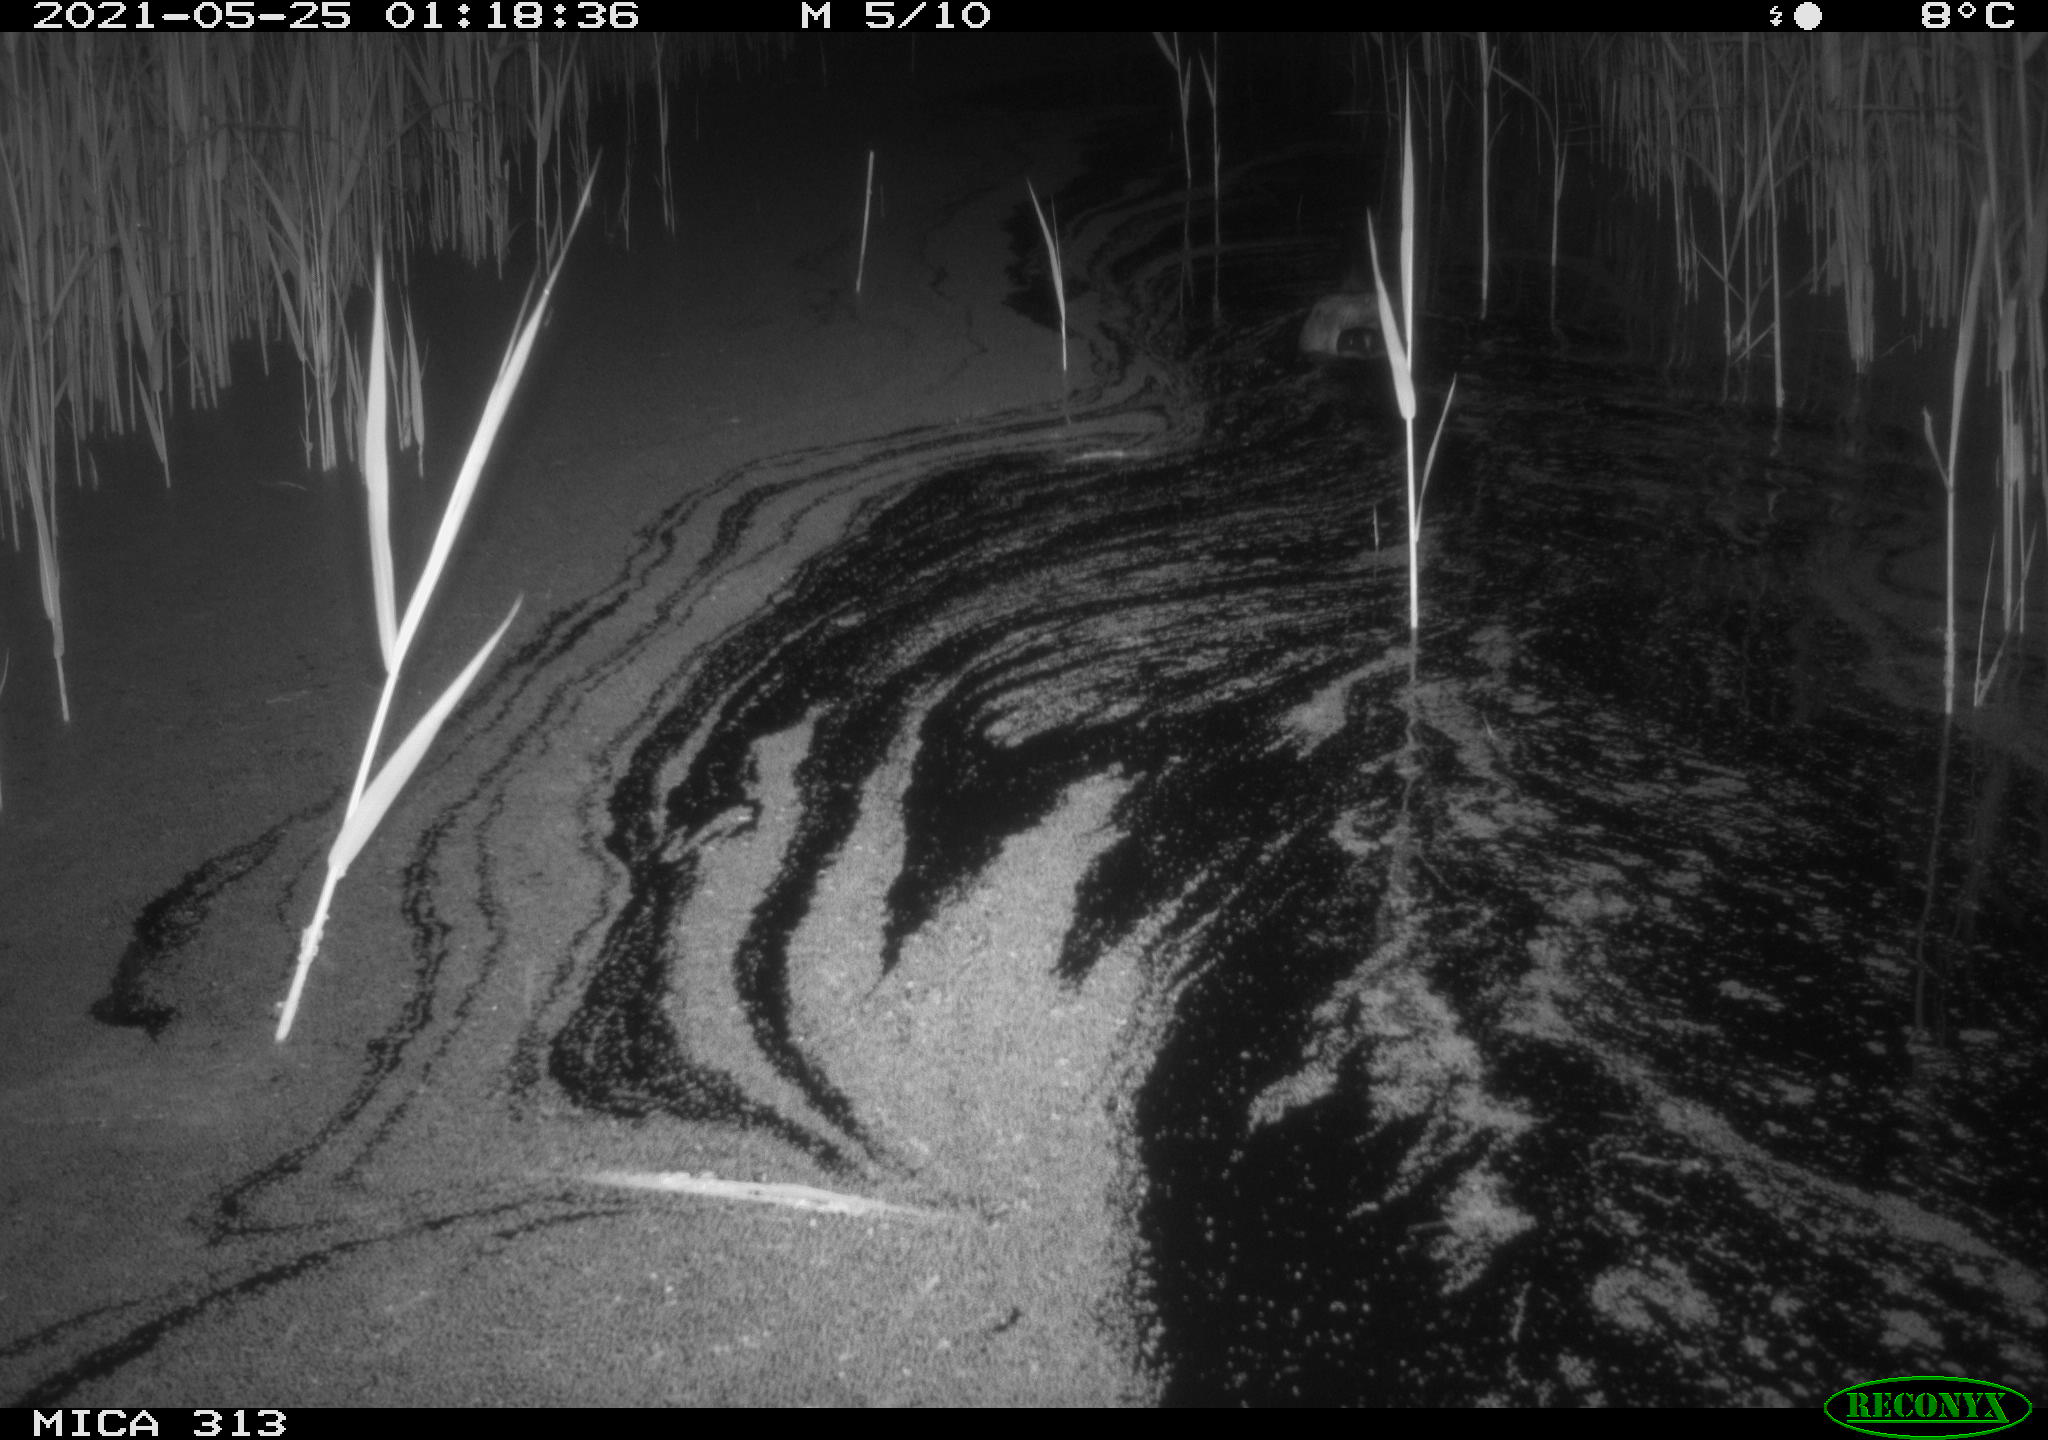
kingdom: Animalia
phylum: Chordata
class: Aves
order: Anseriformes
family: Anatidae
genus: Anas
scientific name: Anas platyrhynchos
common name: Mallard
